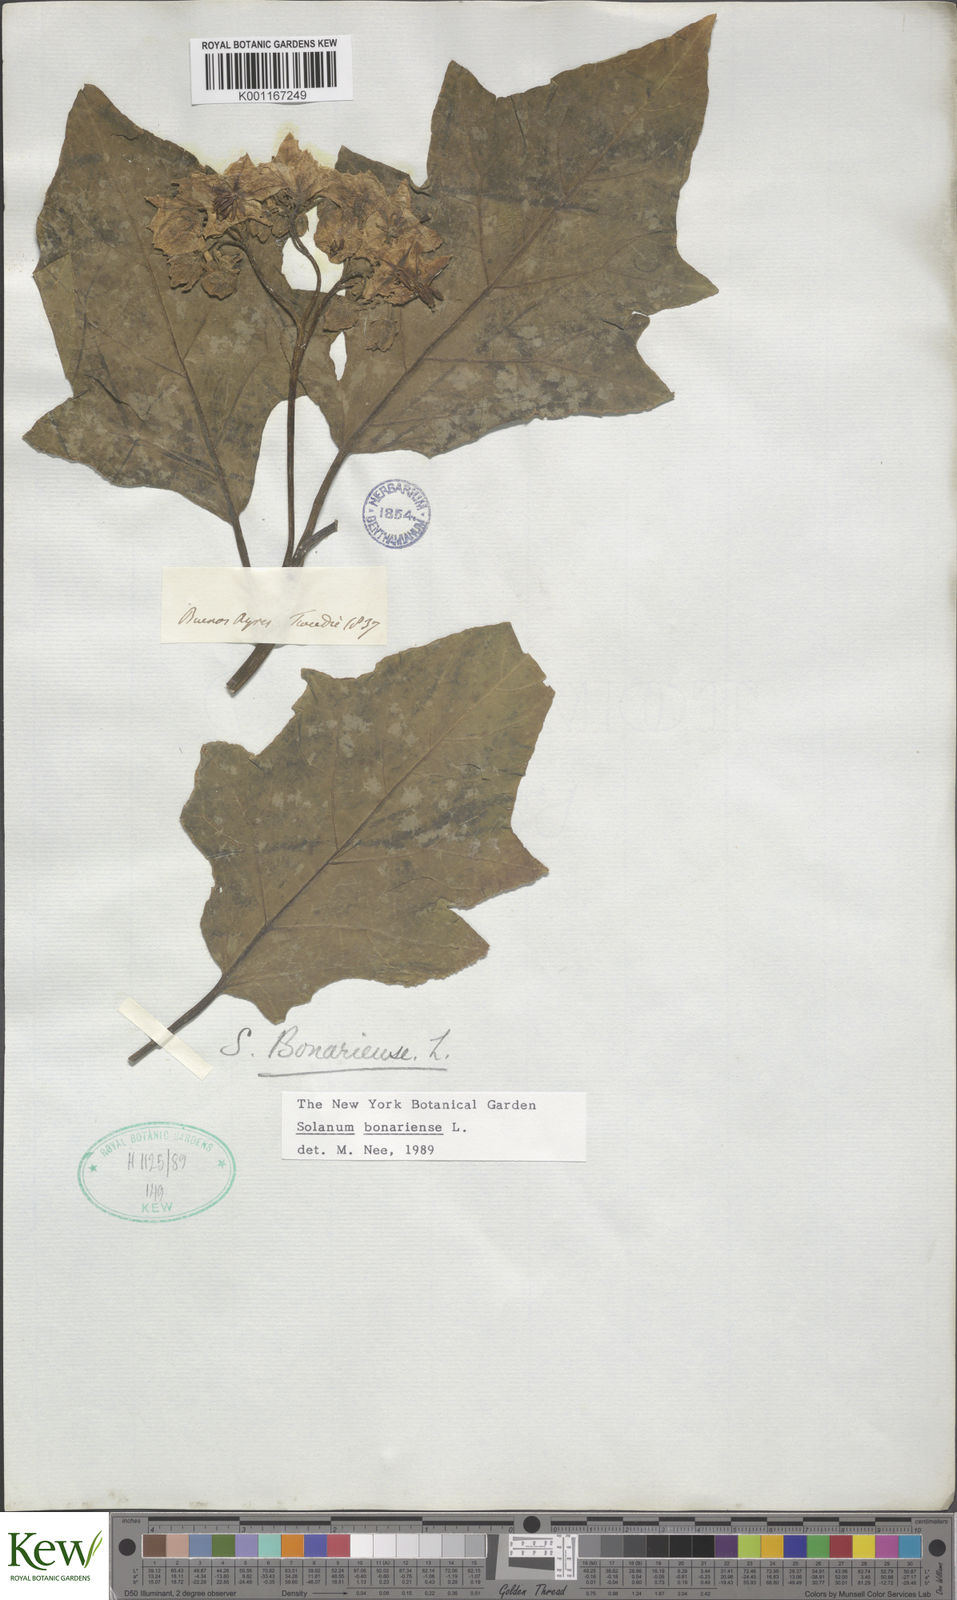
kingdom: Plantae
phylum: Tracheophyta
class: Magnoliopsida
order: Solanales
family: Solanaceae
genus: Solanum
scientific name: Solanum bonariense
